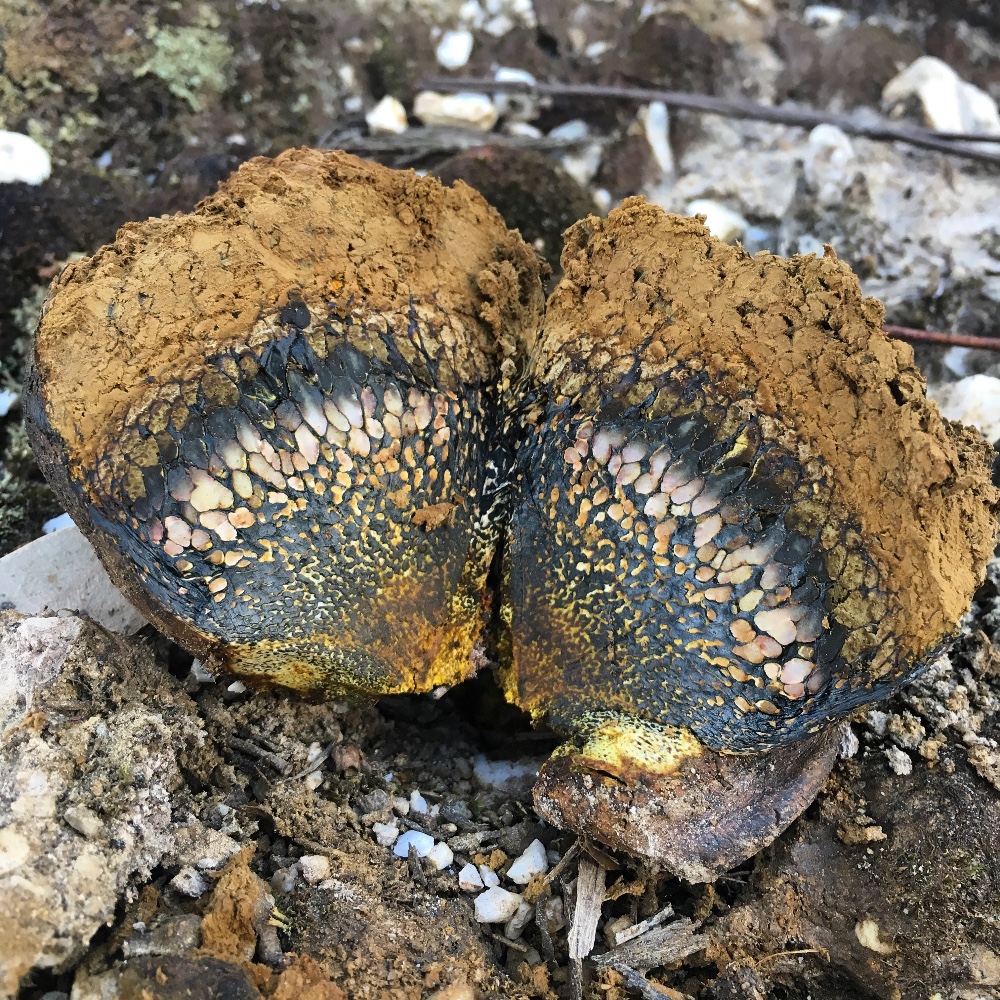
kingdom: Fungi
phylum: Basidiomycota
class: Agaricomycetes
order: Boletales
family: Sclerodermataceae
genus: Pisolithus
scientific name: Pisolithus
